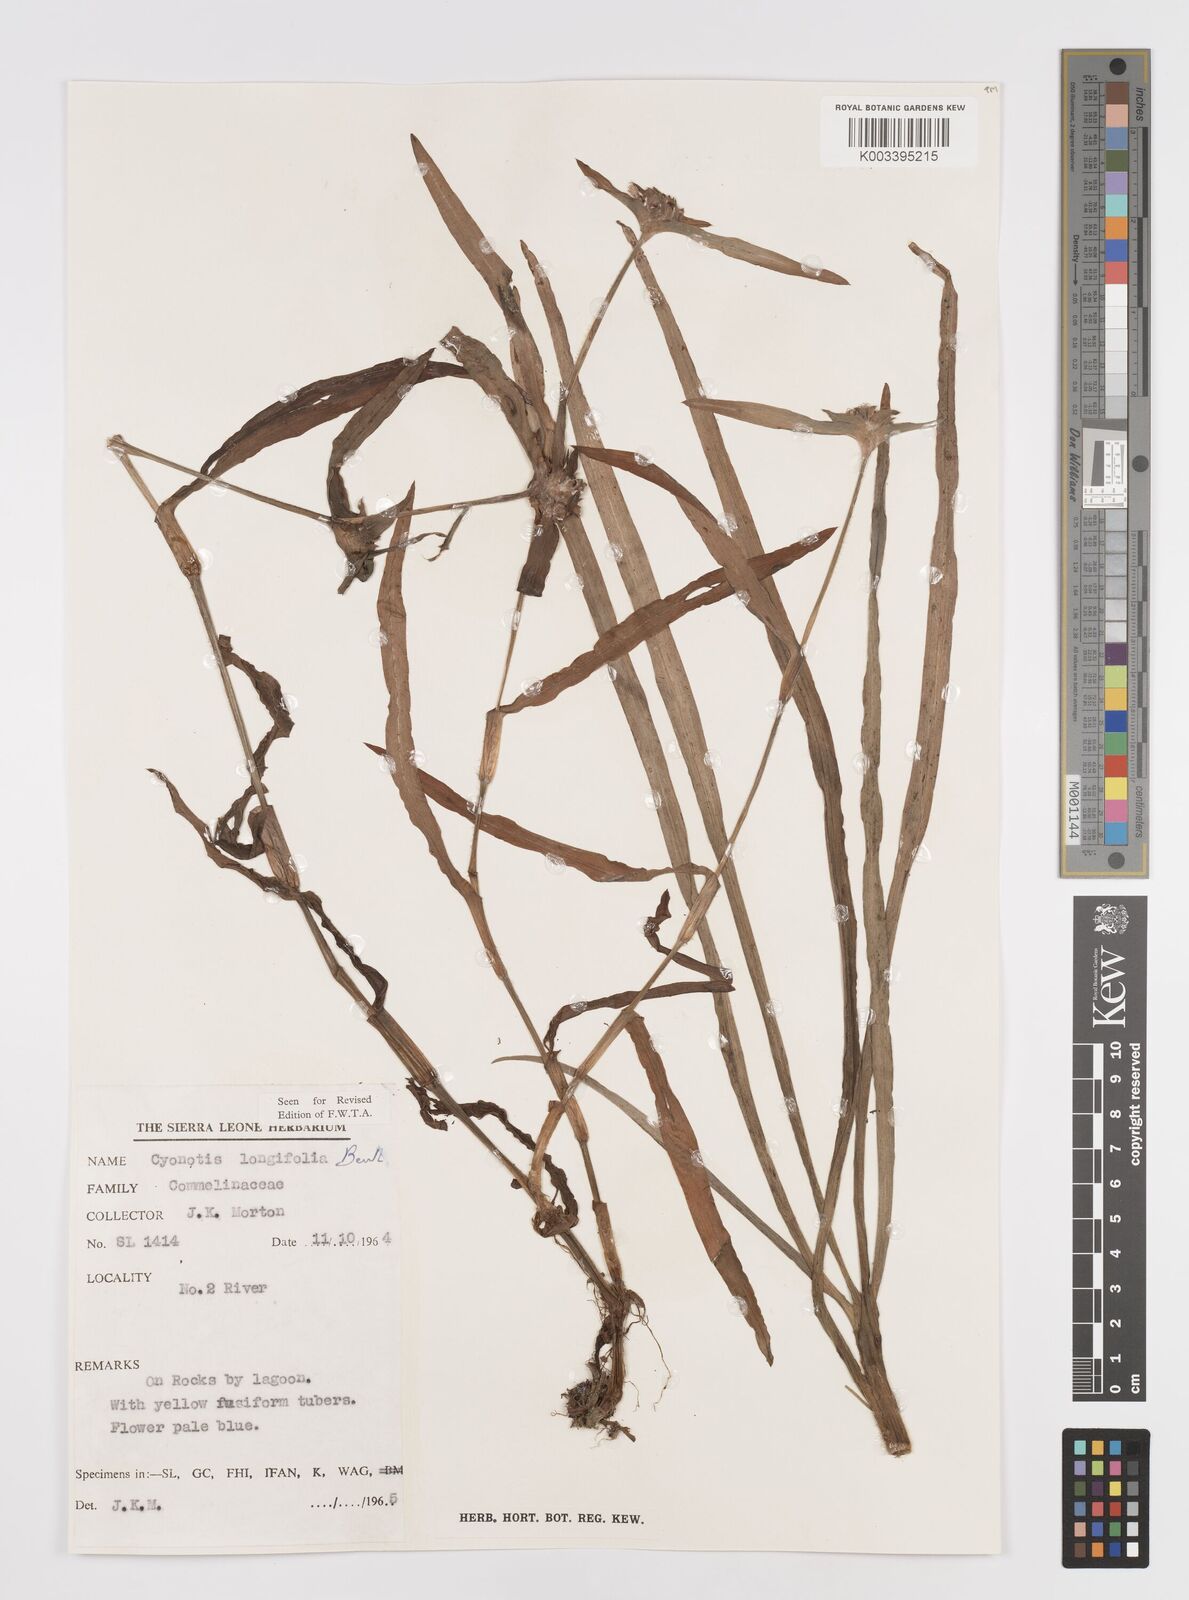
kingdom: Plantae
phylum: Tracheophyta
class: Liliopsida
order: Commelinales
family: Commelinaceae
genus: Cyanotis
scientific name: Cyanotis
